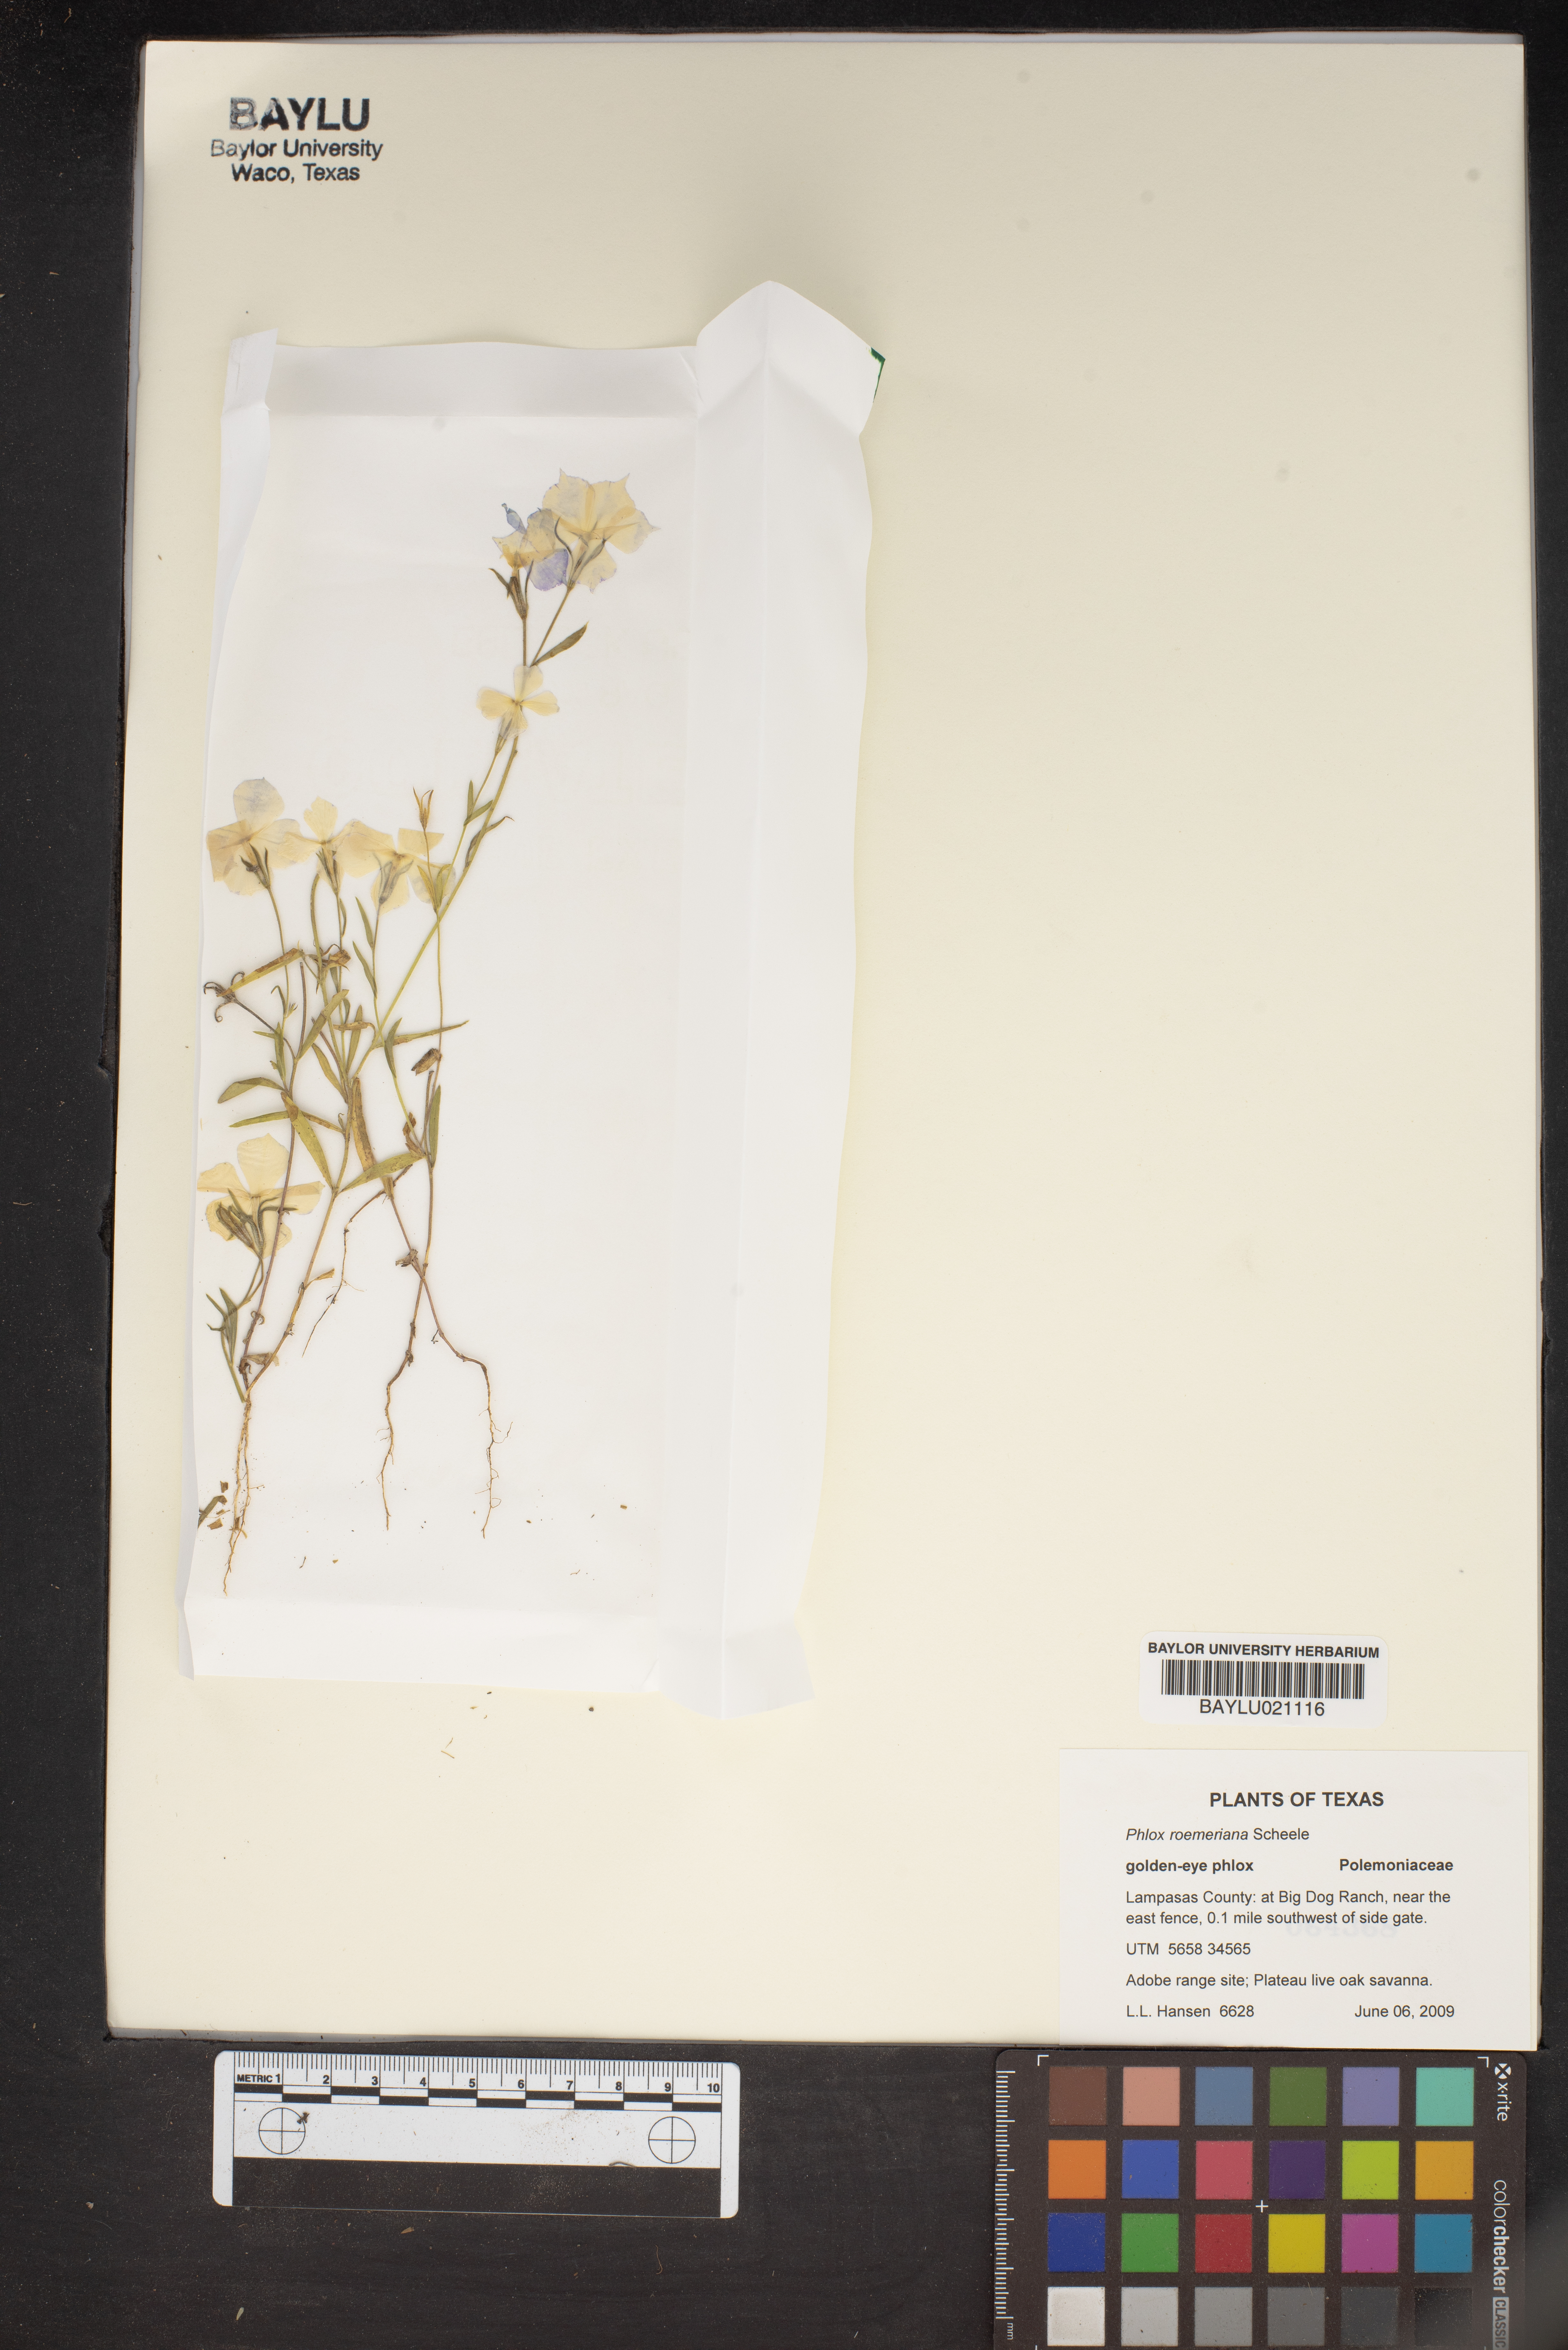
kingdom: Plantae
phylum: Tracheophyta
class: Magnoliopsida
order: Ericales
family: Polemoniaceae
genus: Phlox
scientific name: Phlox roemeriana
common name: Roemer's phlox
